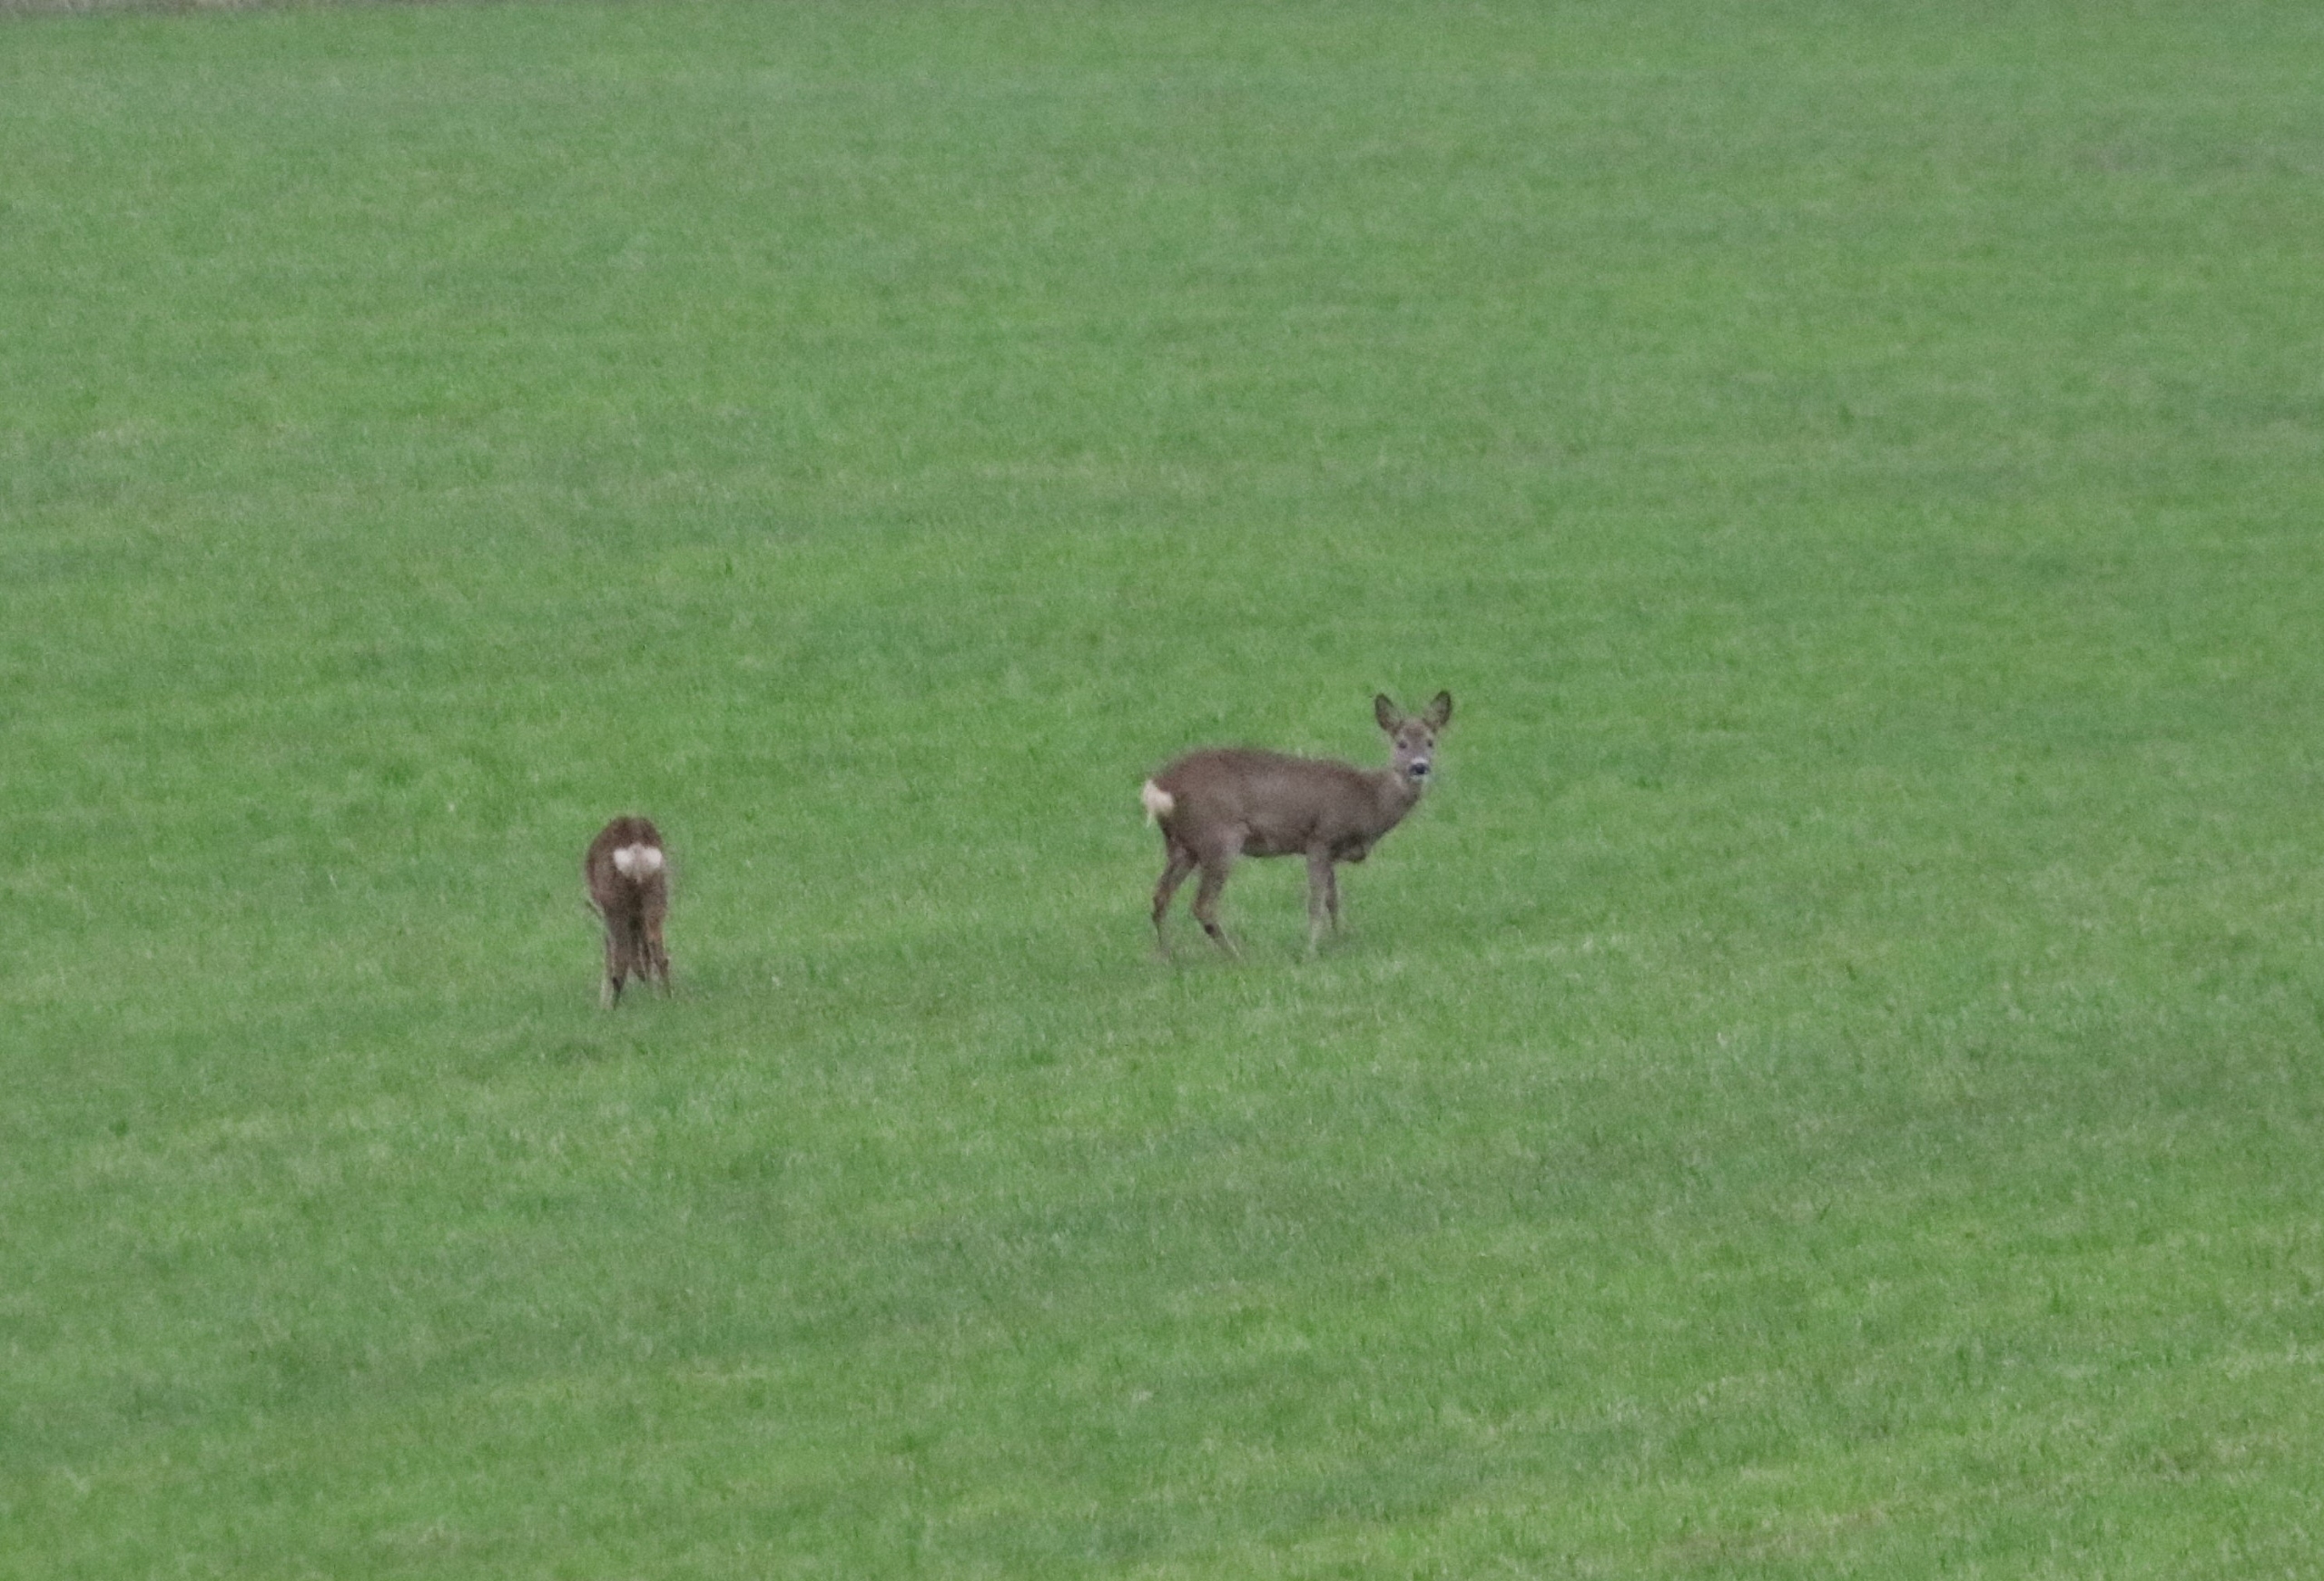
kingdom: Animalia
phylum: Chordata
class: Mammalia
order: Artiodactyla
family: Cervidae
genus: Capreolus
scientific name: Capreolus capreolus
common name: Rådyr
